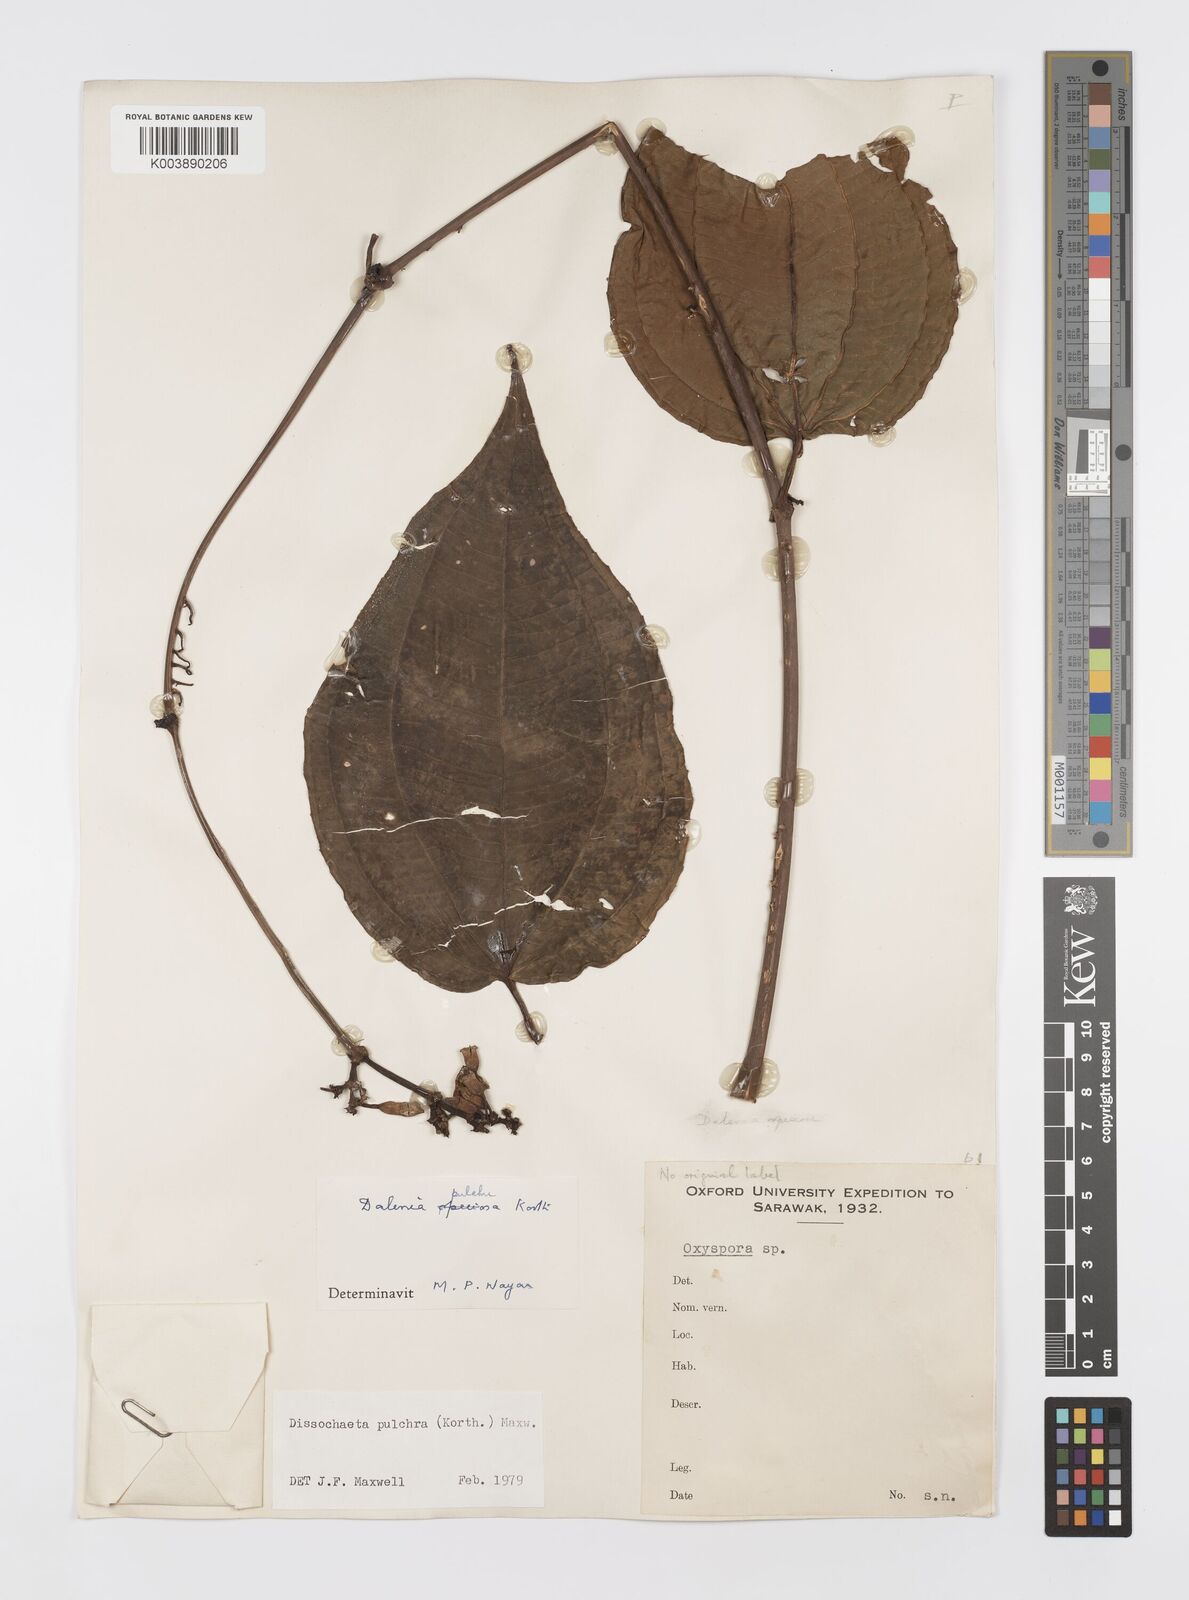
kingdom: Plantae
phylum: Tracheophyta
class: Magnoliopsida
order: Myrtales
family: Melastomataceae
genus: Dalenia
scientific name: Dalenia pulchra
